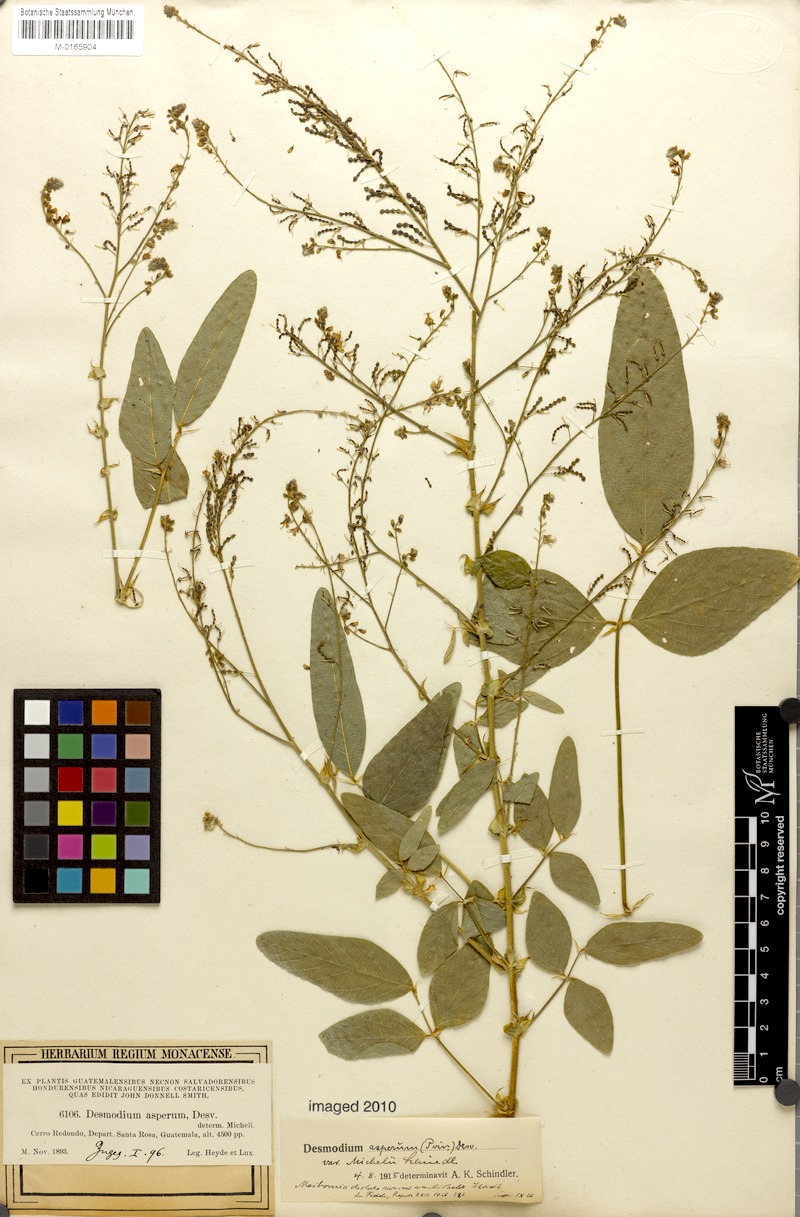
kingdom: Plantae
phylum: Tracheophyta
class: Magnoliopsida
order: Fabales
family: Fabaceae
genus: Desmodium
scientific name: Desmodium hirsutum
